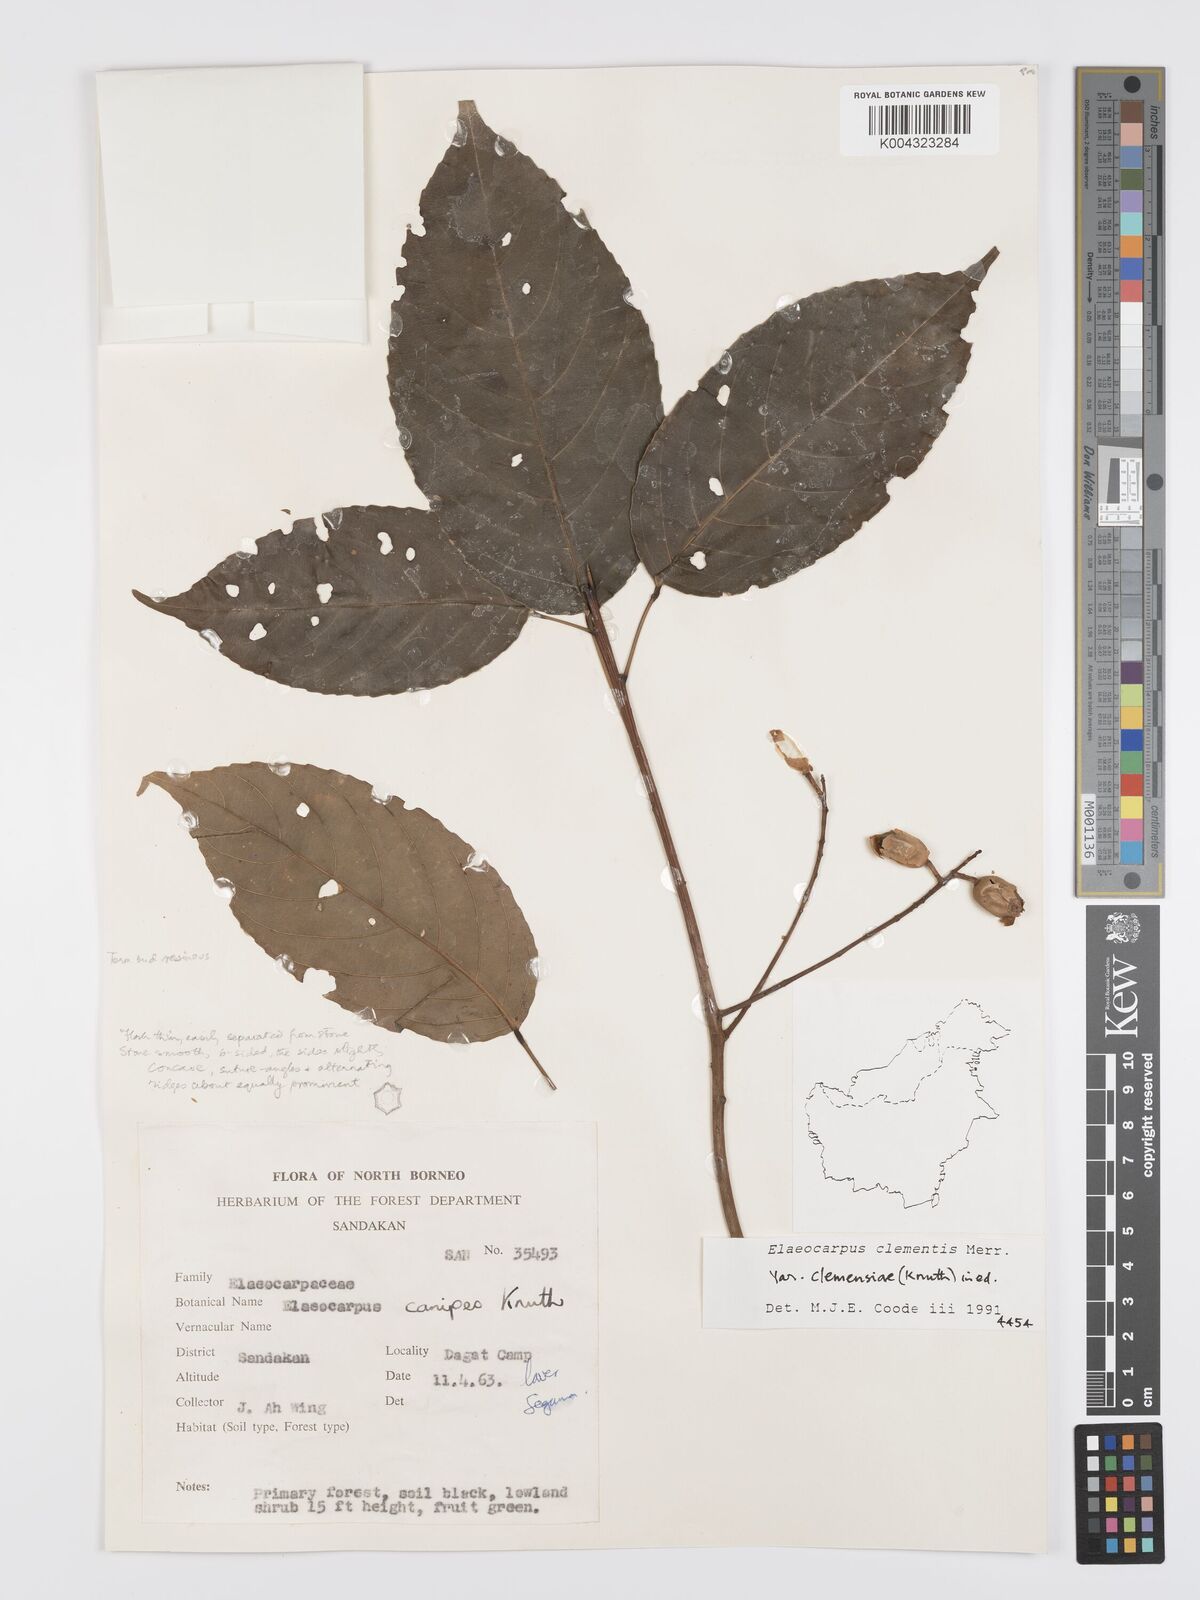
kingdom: Plantae
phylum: Tracheophyta
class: Magnoliopsida
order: Oxalidales
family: Elaeocarpaceae
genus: Elaeocarpus
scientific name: Elaeocarpus clementis
